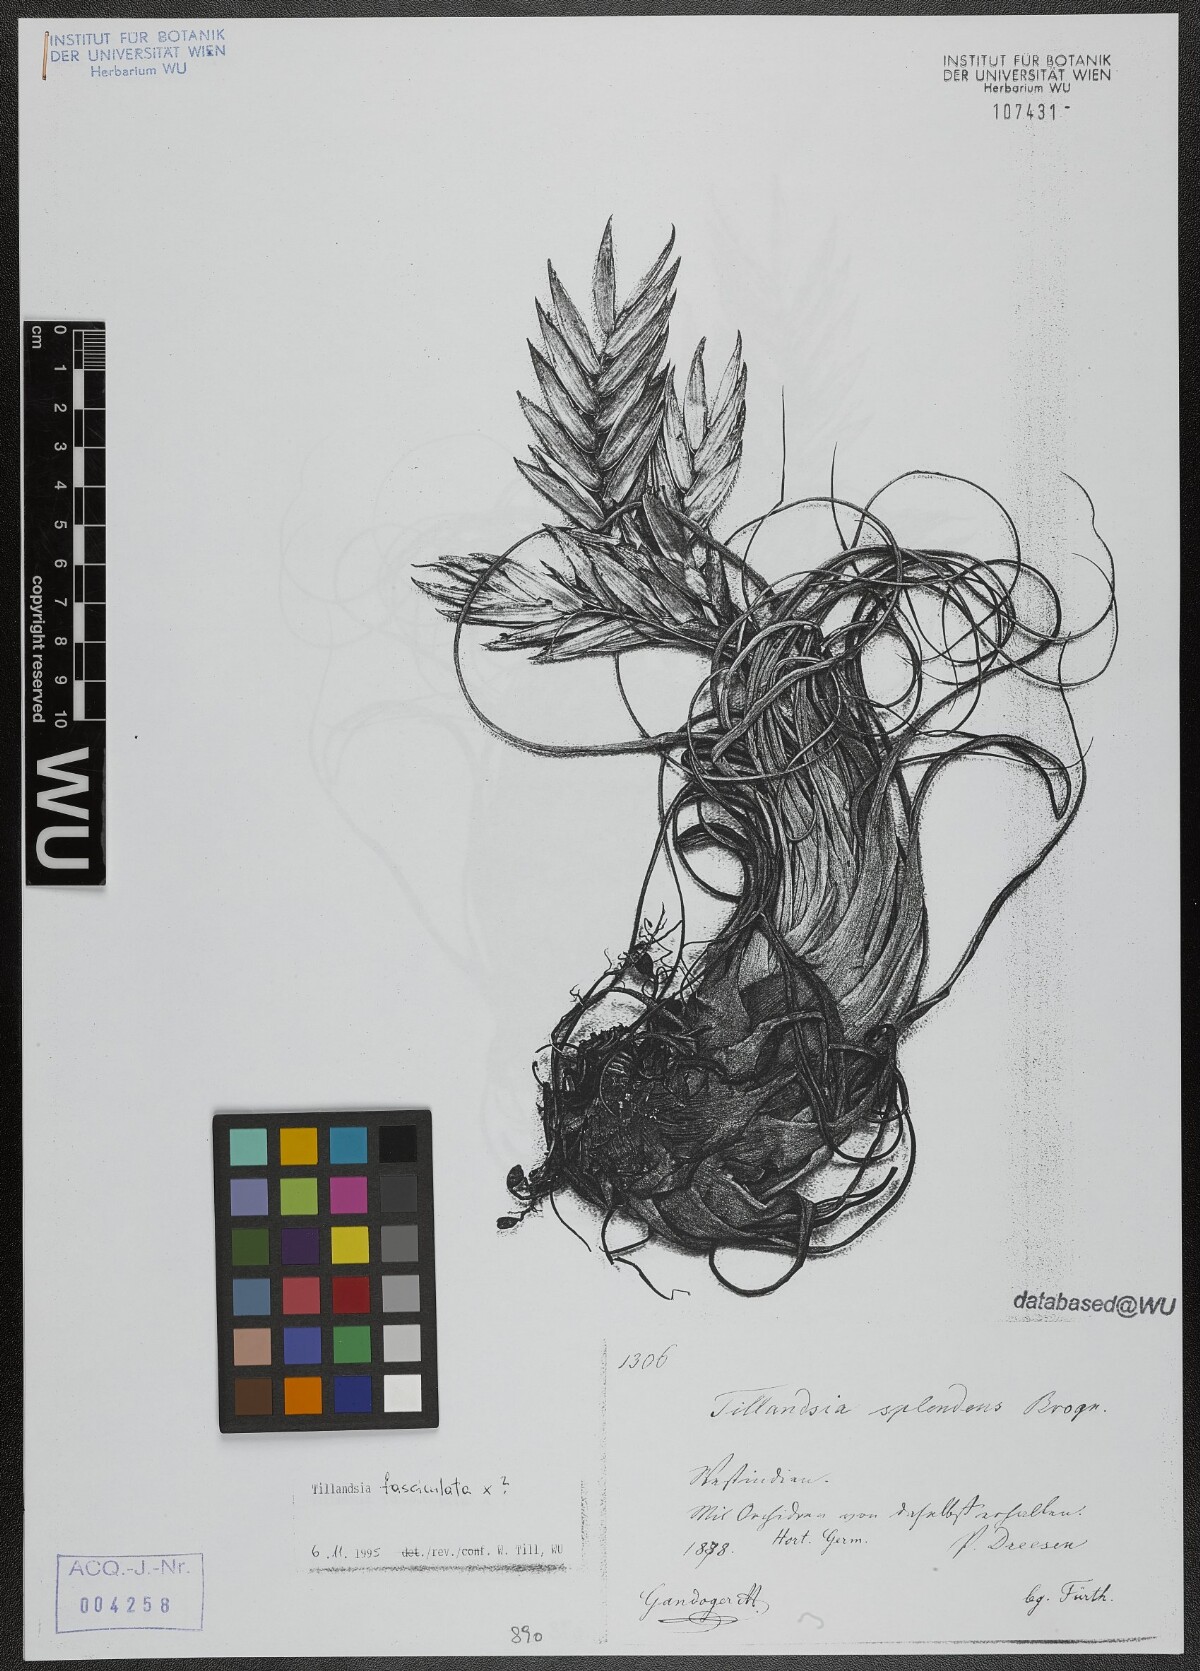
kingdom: Plantae
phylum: Tracheophyta
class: Liliopsida
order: Poales
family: Bromeliaceae
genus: Tillandsia
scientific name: Tillandsia fasciculata
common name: Giant airplant
